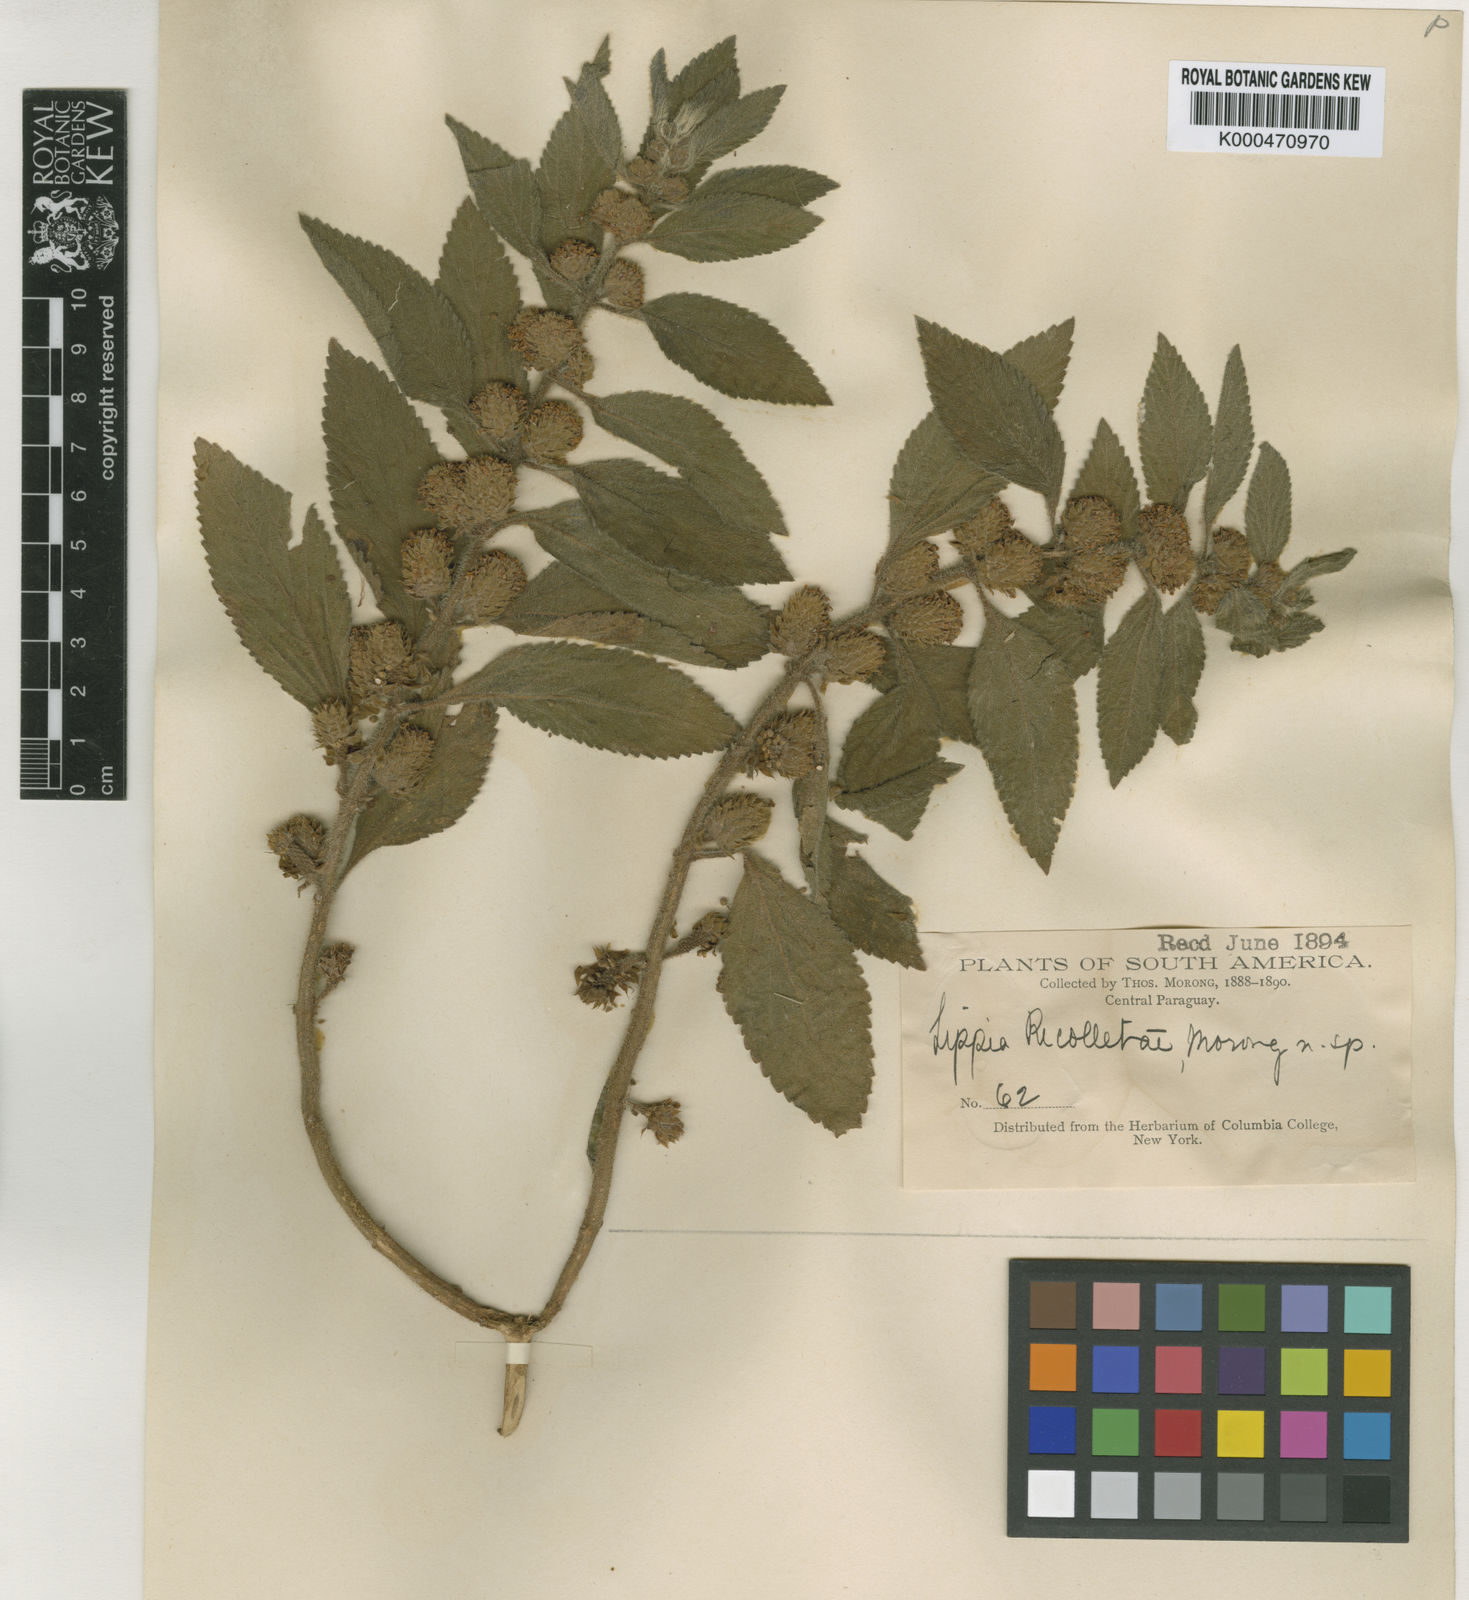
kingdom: Plantae
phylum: Tracheophyta
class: Magnoliopsida
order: Lamiales
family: Verbenaceae
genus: Lippia
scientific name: Lippia recolletae
